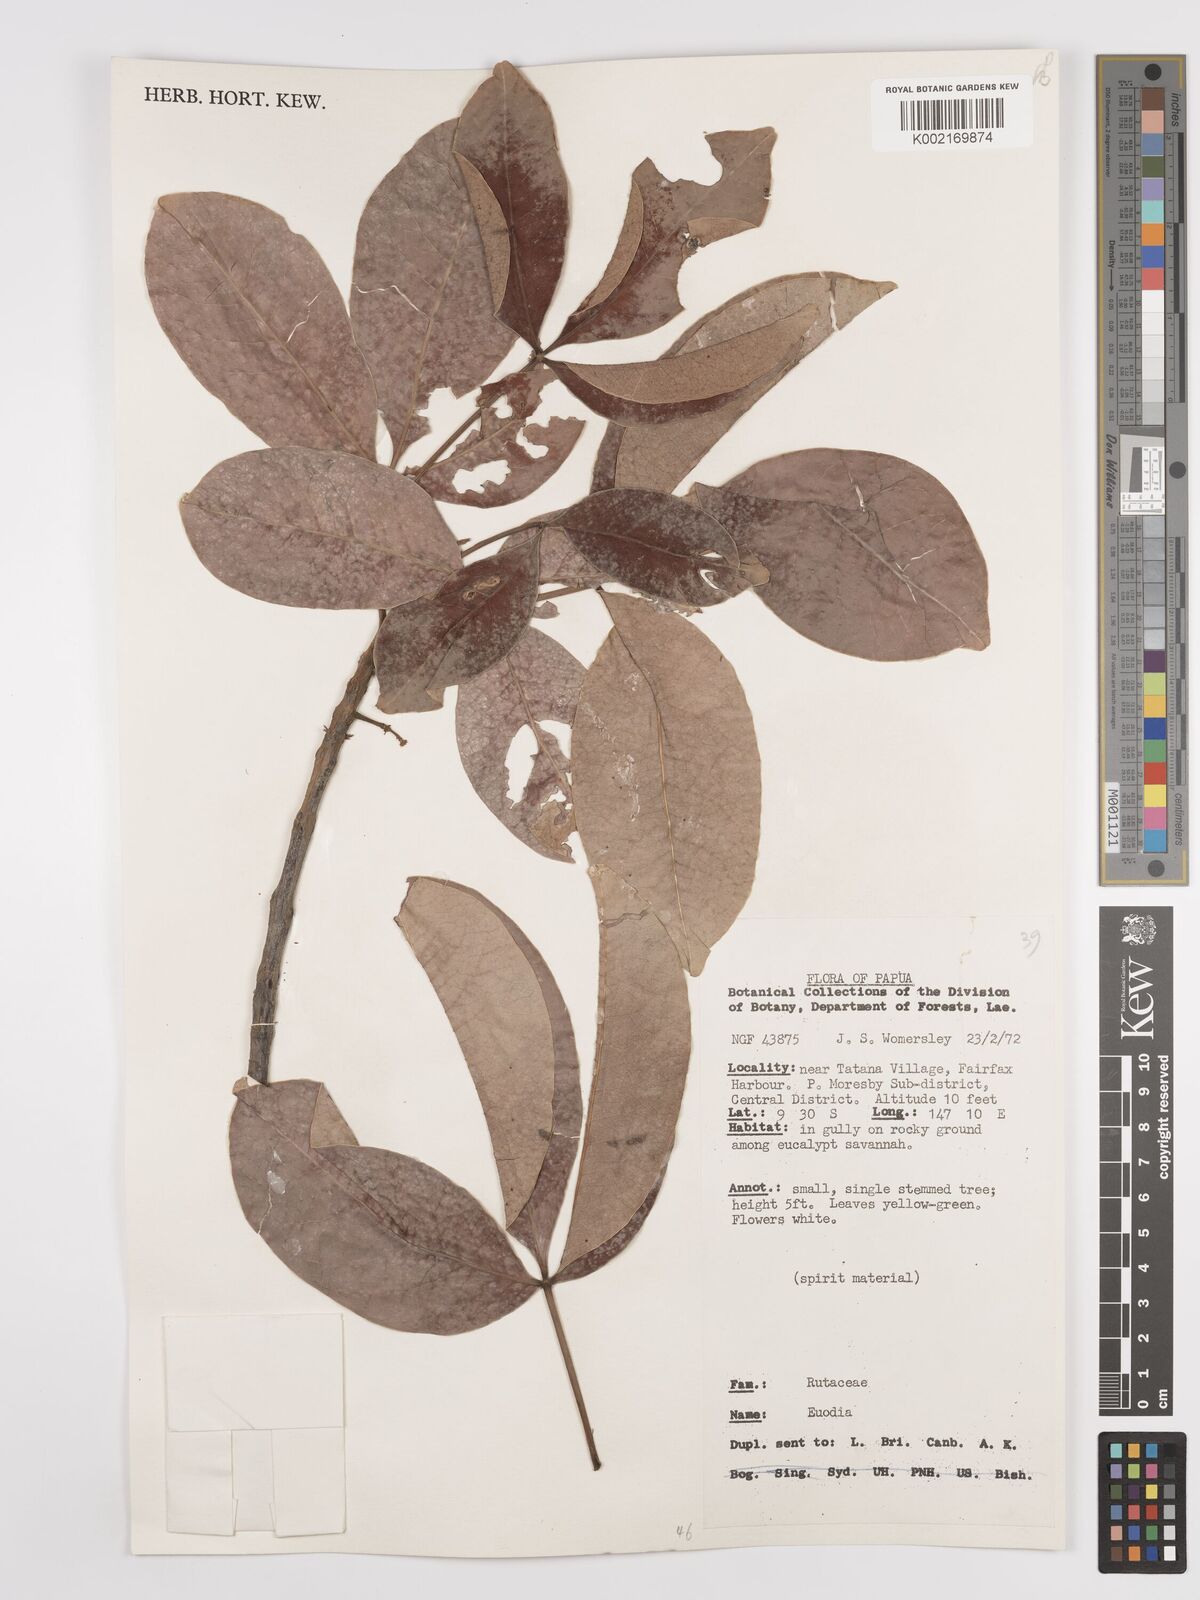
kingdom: Plantae
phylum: Tracheophyta
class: Magnoliopsida
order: Sapindales
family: Rutaceae
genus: Euodia
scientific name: Euodia
